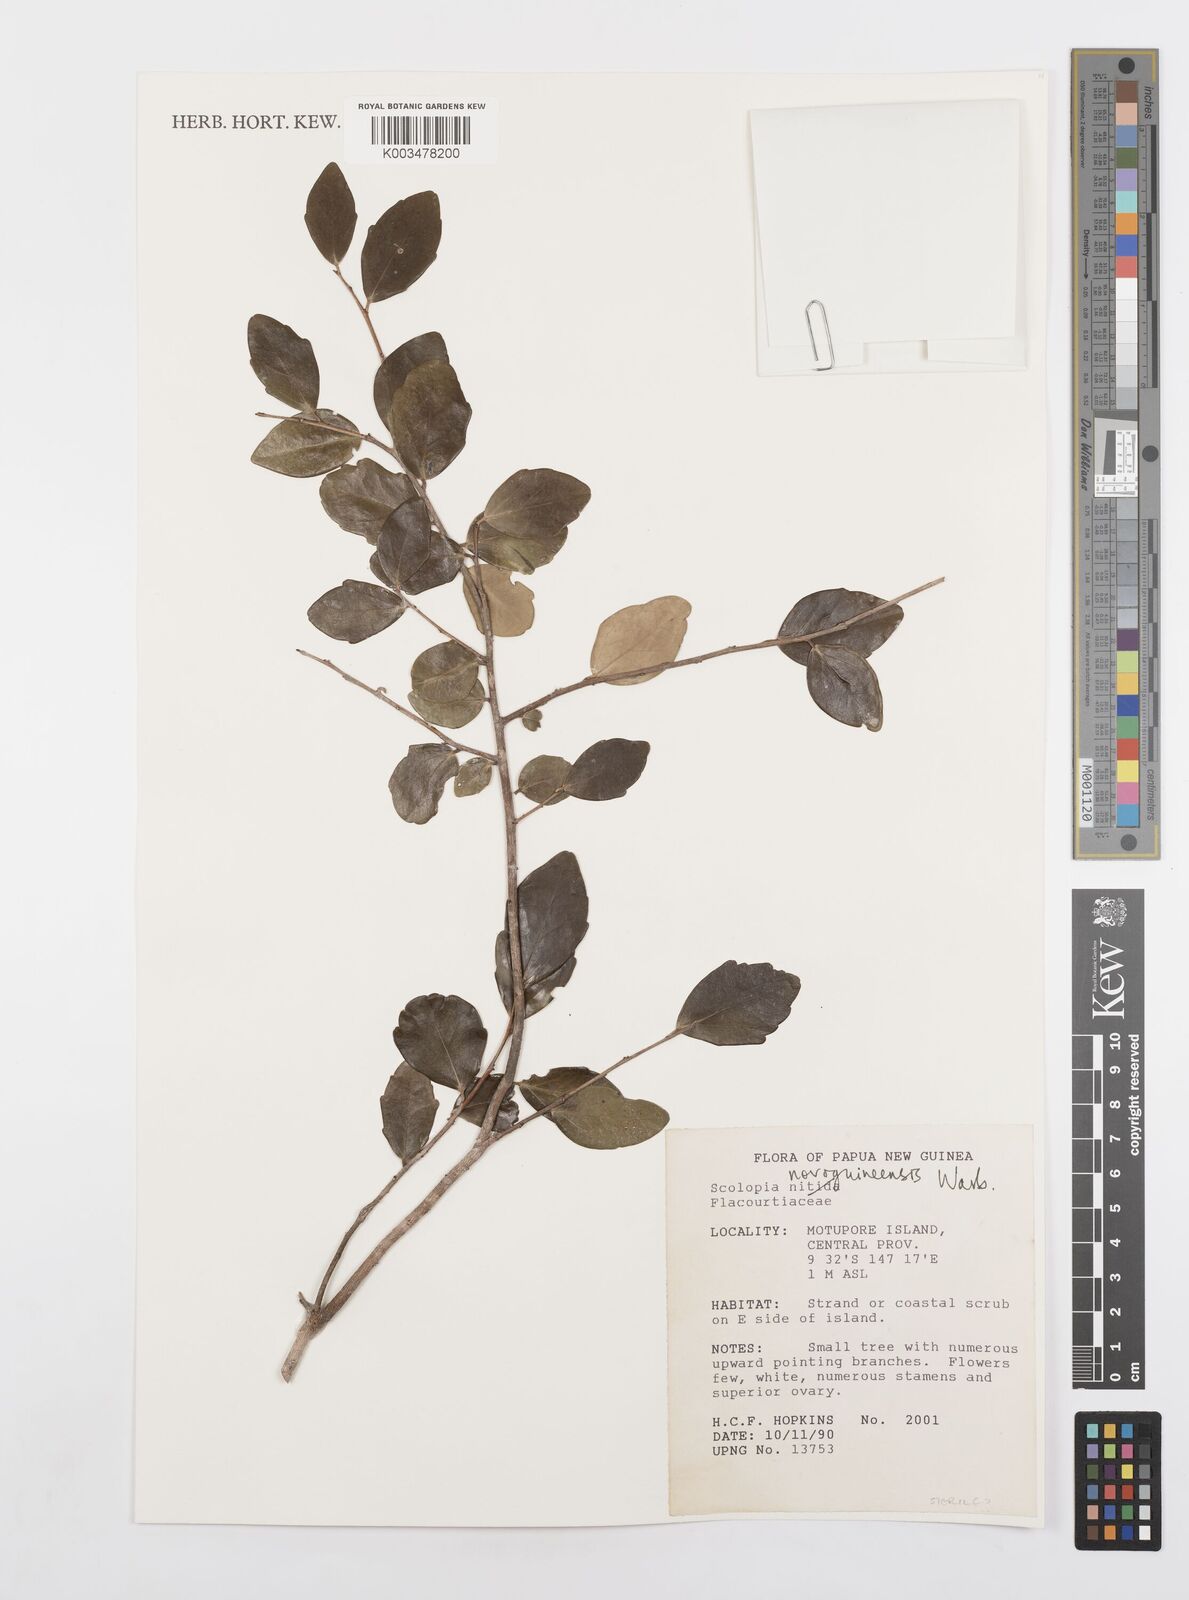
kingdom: Plantae
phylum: Tracheophyta
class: Magnoliopsida
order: Malpighiales
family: Salicaceae
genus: Scolopia
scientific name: Scolopia novoguineensis
